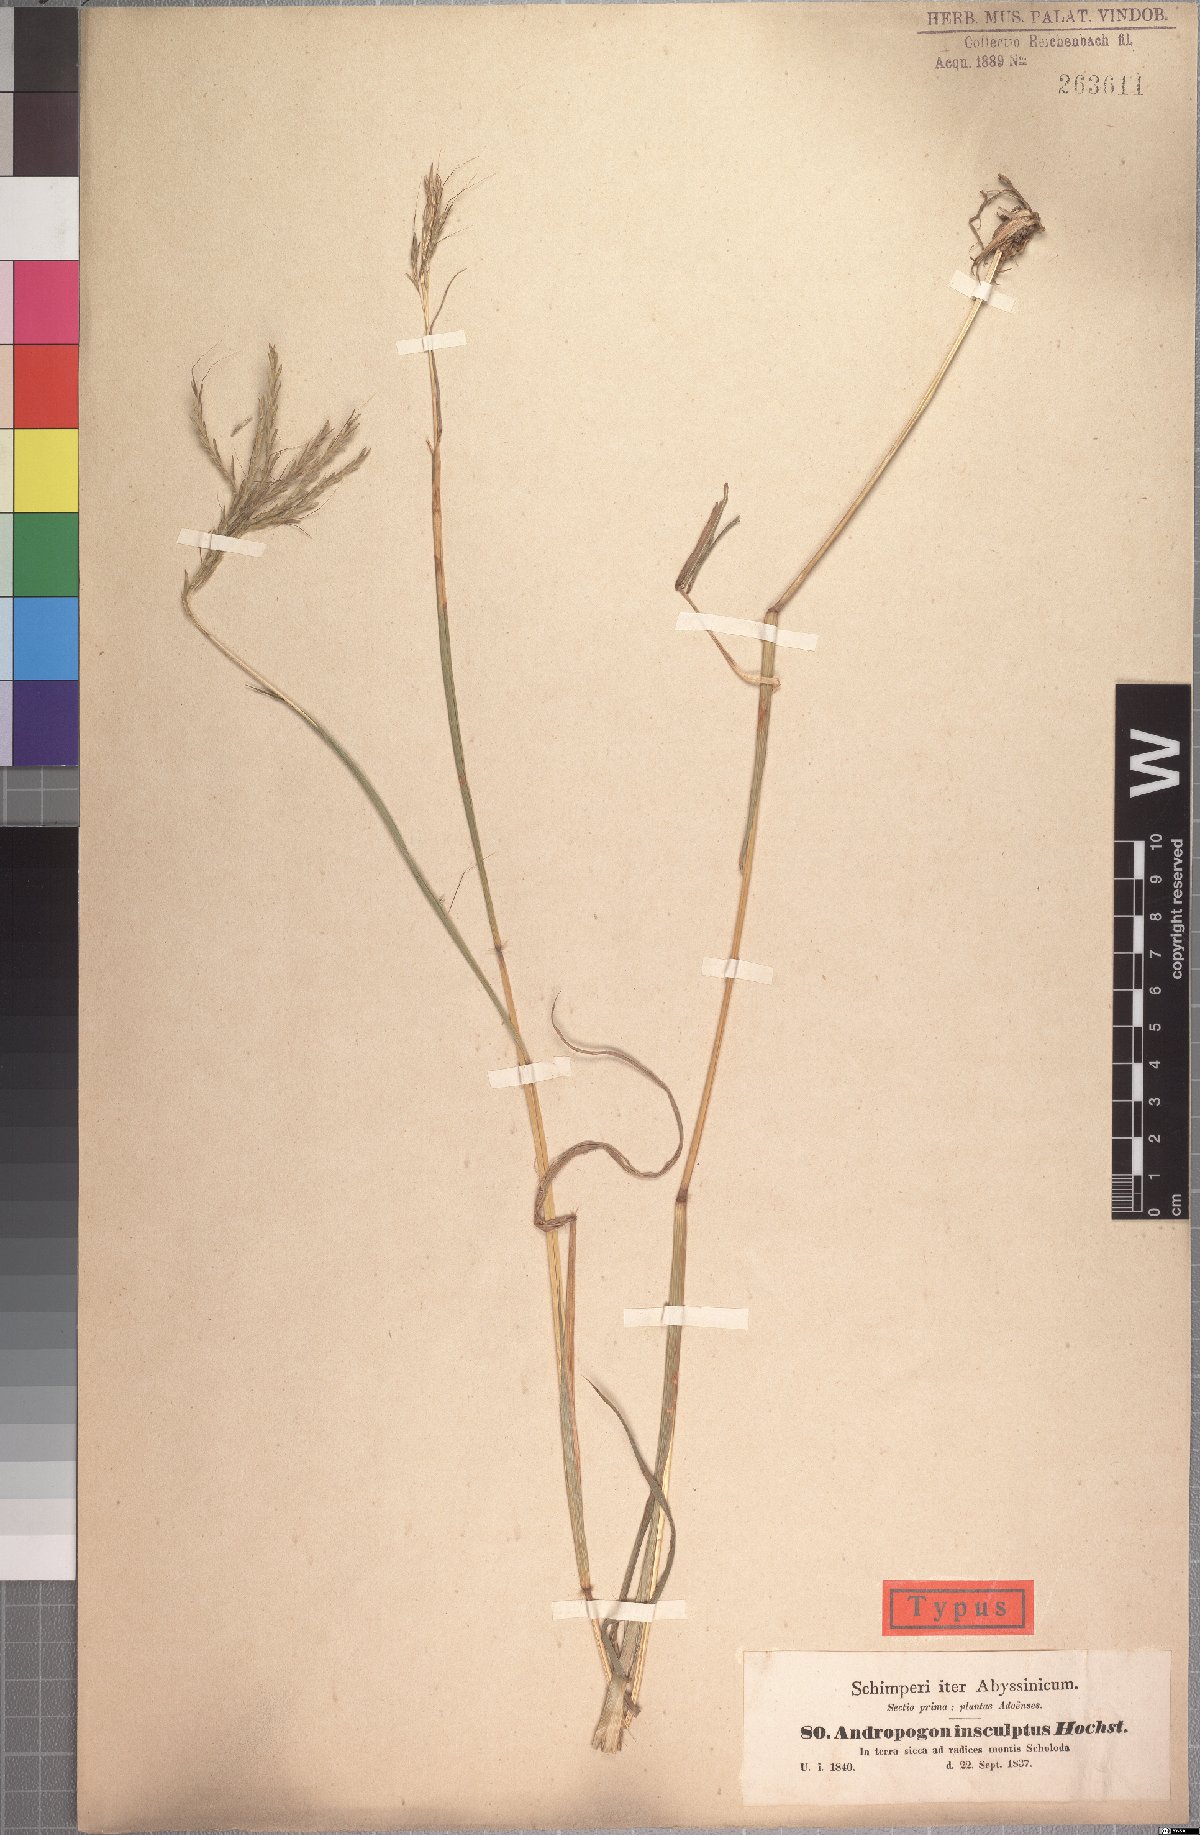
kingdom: Plantae
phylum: Tracheophyta
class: Liliopsida
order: Poales
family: Poaceae
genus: Bothriochloa
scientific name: Bothriochloa insculpta
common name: Creeping-bluegrass
